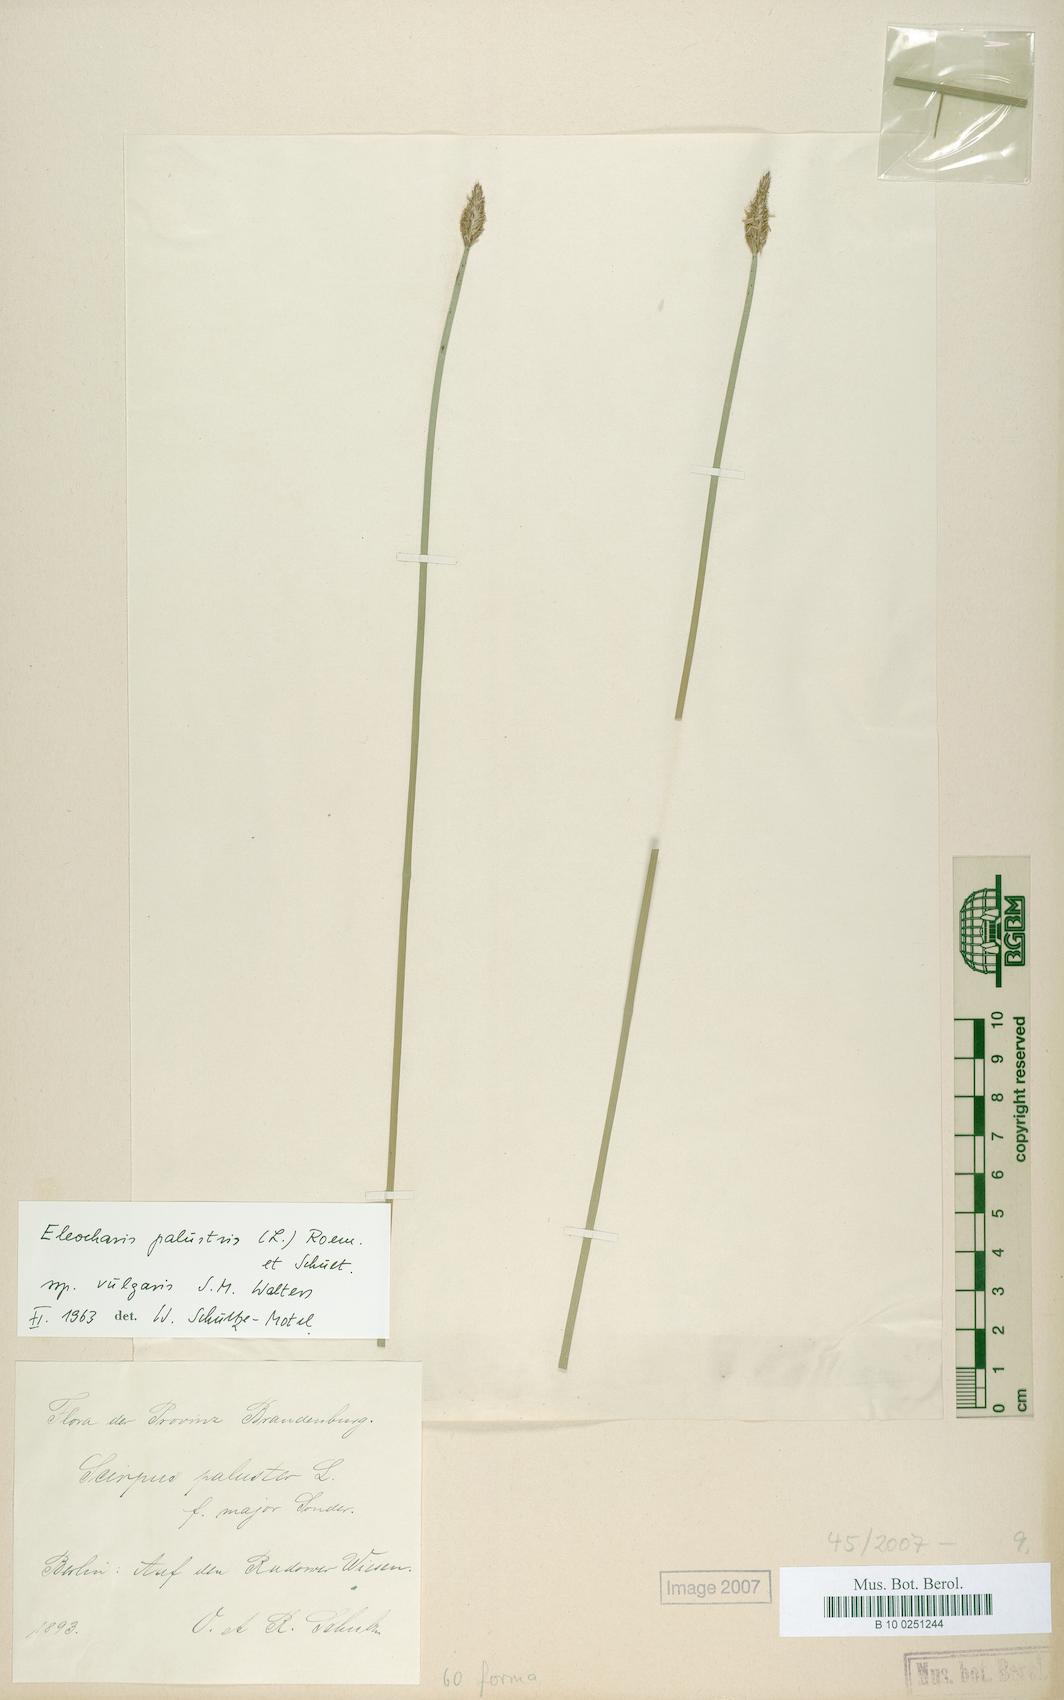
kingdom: Plantae
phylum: Tracheophyta
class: Liliopsida
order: Poales
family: Cyperaceae
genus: Eleocharis
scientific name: Eleocharis palustris
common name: Common spike-rush
